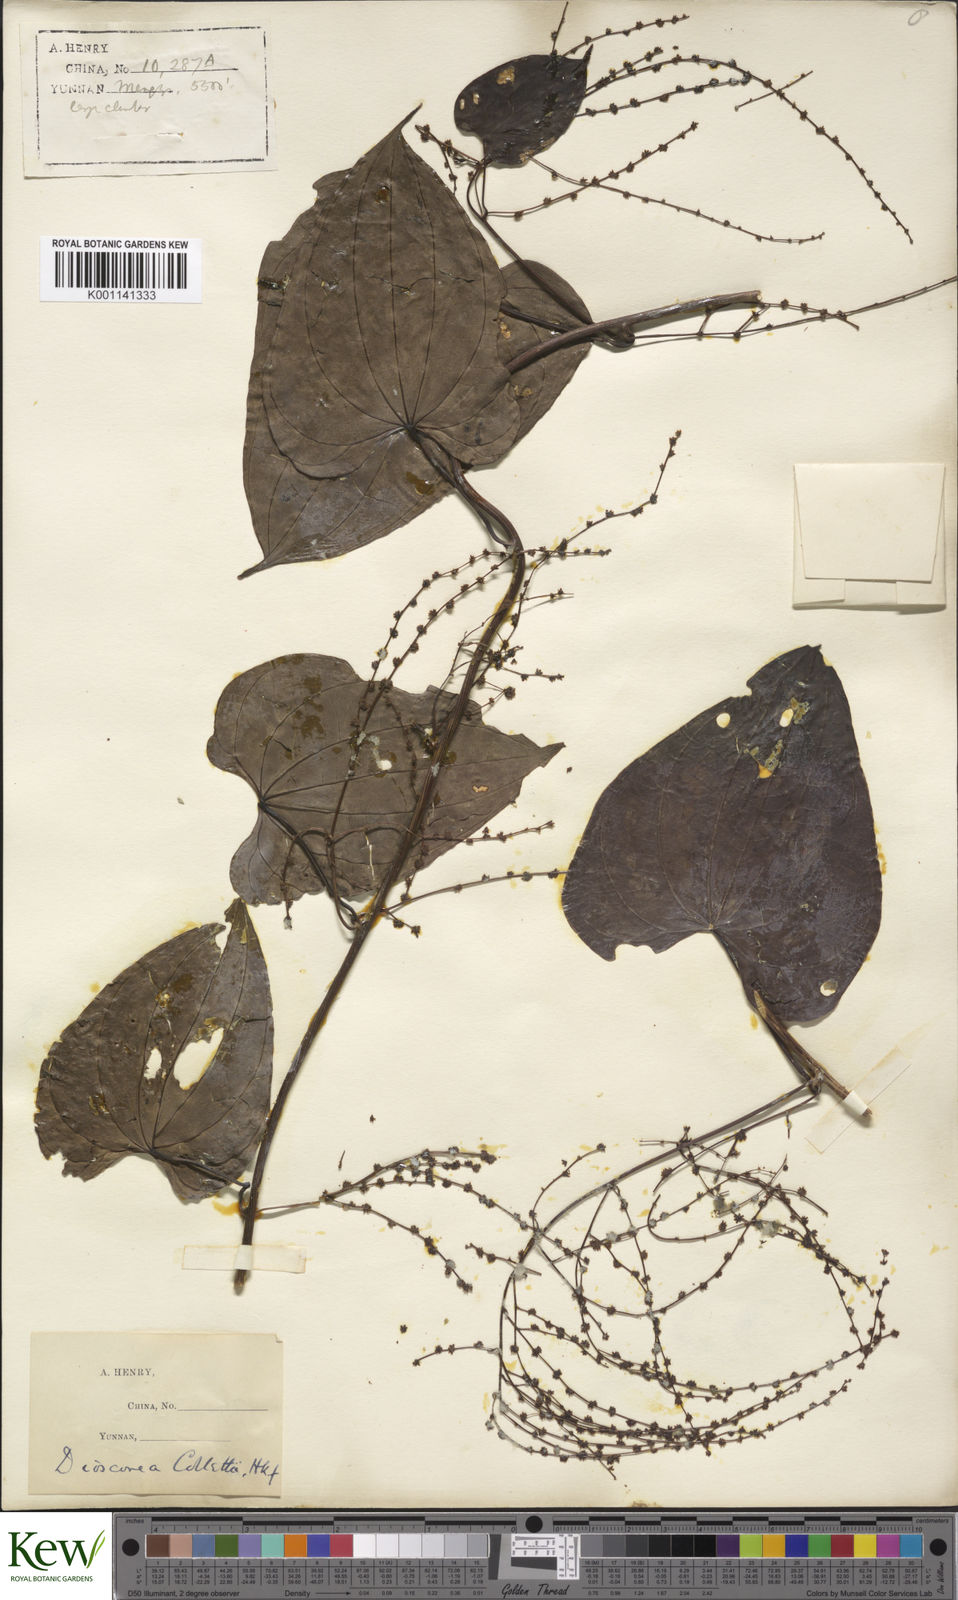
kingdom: Plantae
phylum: Tracheophyta
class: Liliopsida
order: Dioscoreales
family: Dioscoreaceae
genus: Dioscorea
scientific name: Dioscorea collettii
